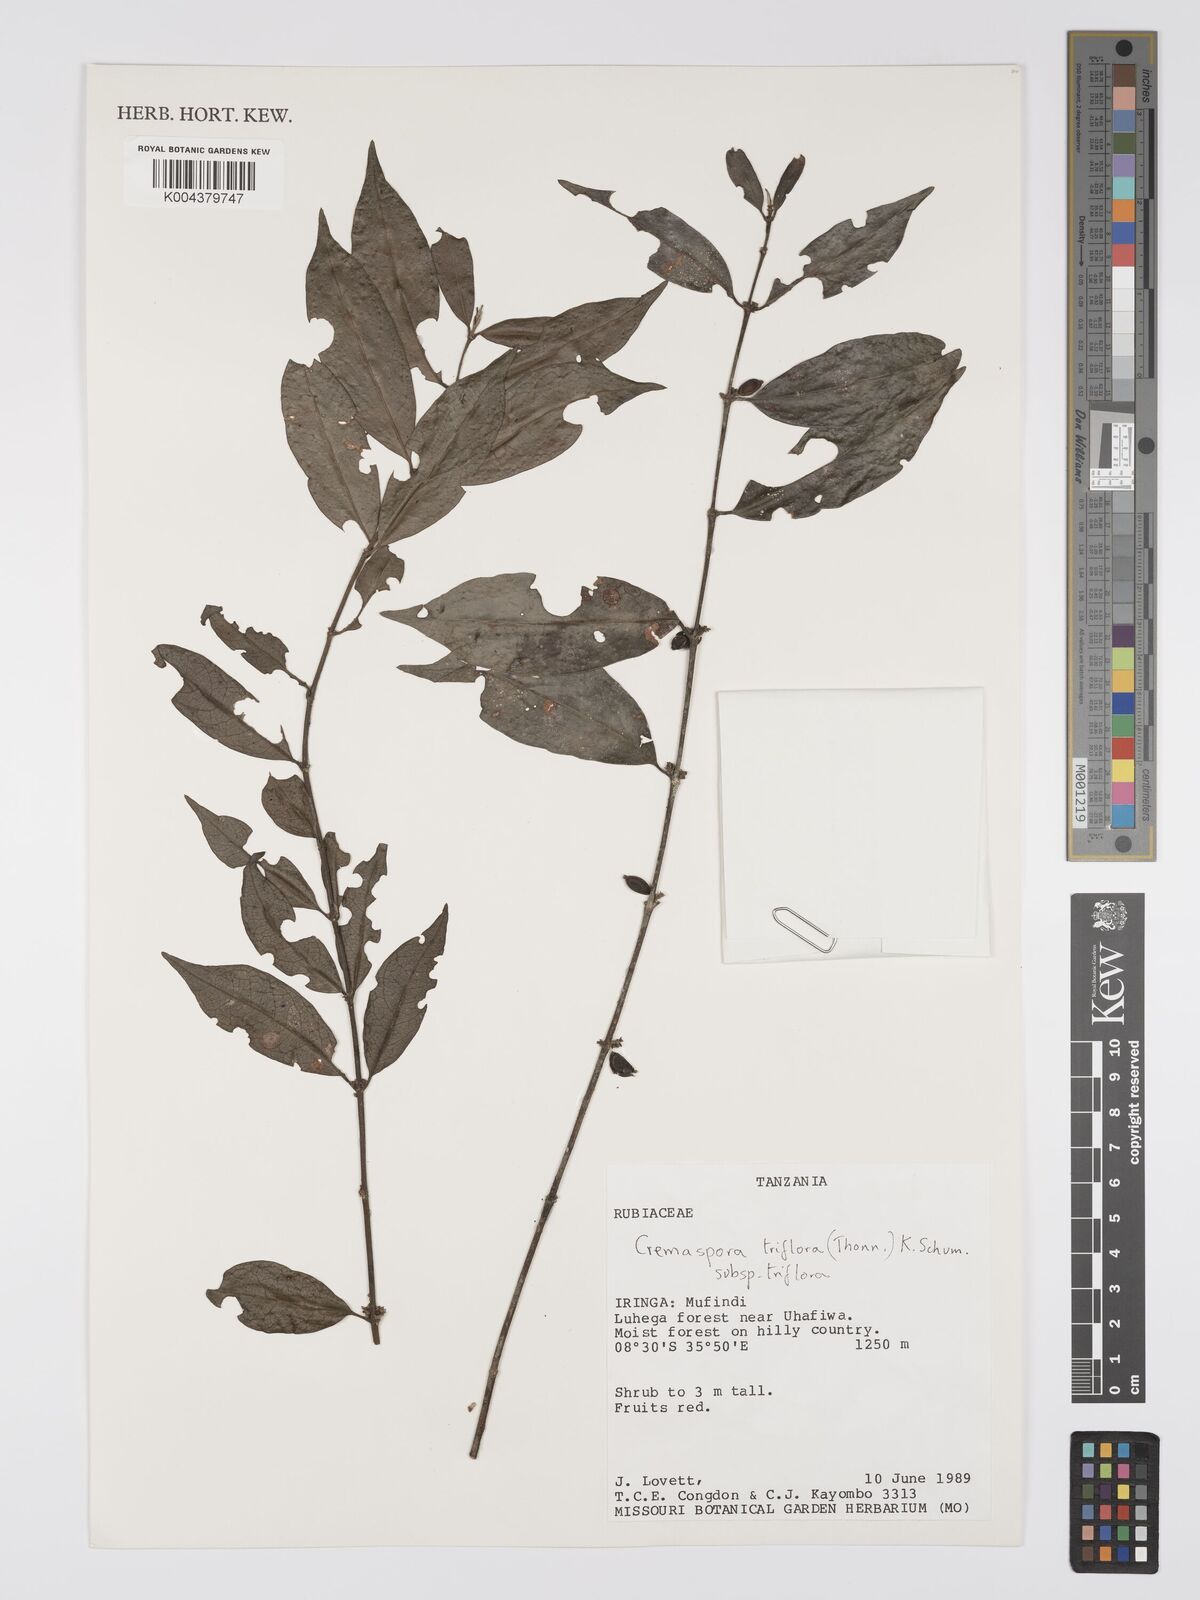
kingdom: Plantae
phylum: Tracheophyta
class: Magnoliopsida
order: Gentianales
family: Rubiaceae
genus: Cremaspora
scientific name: Cremaspora triflora
